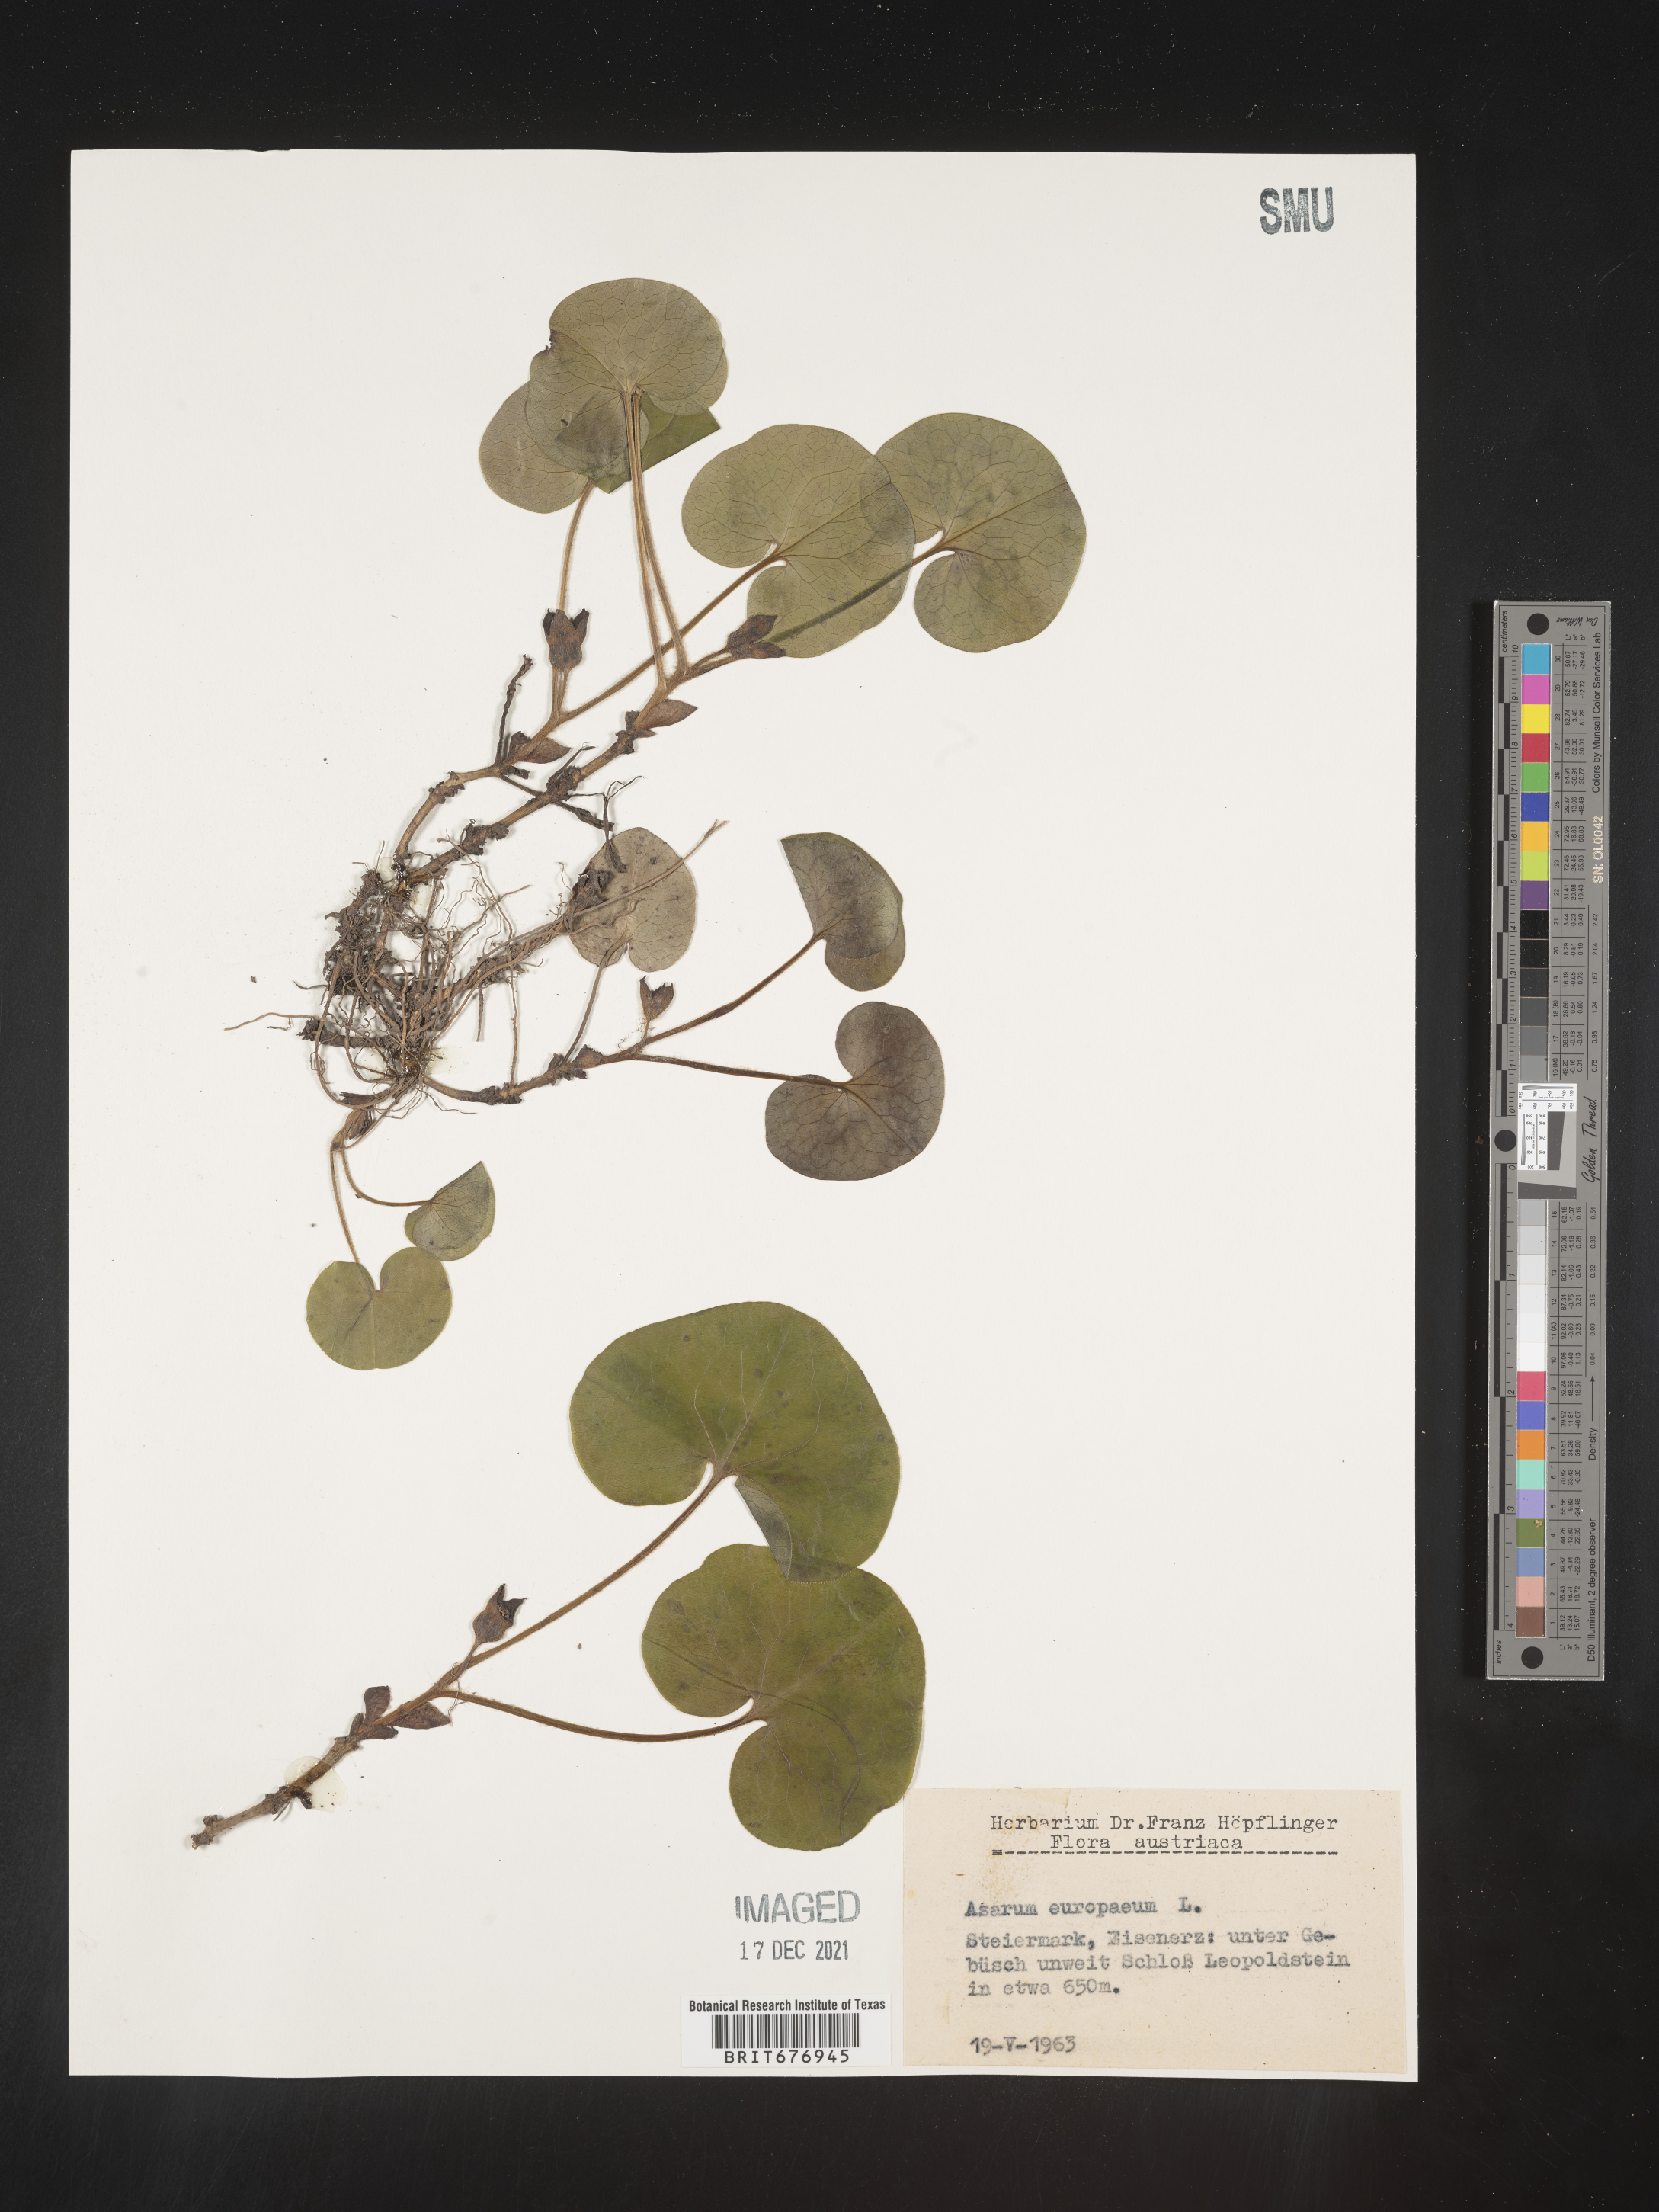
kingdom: Plantae
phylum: Tracheophyta
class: Magnoliopsida
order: Piperales
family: Aristolochiaceae
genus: Asarum
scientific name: Asarum
